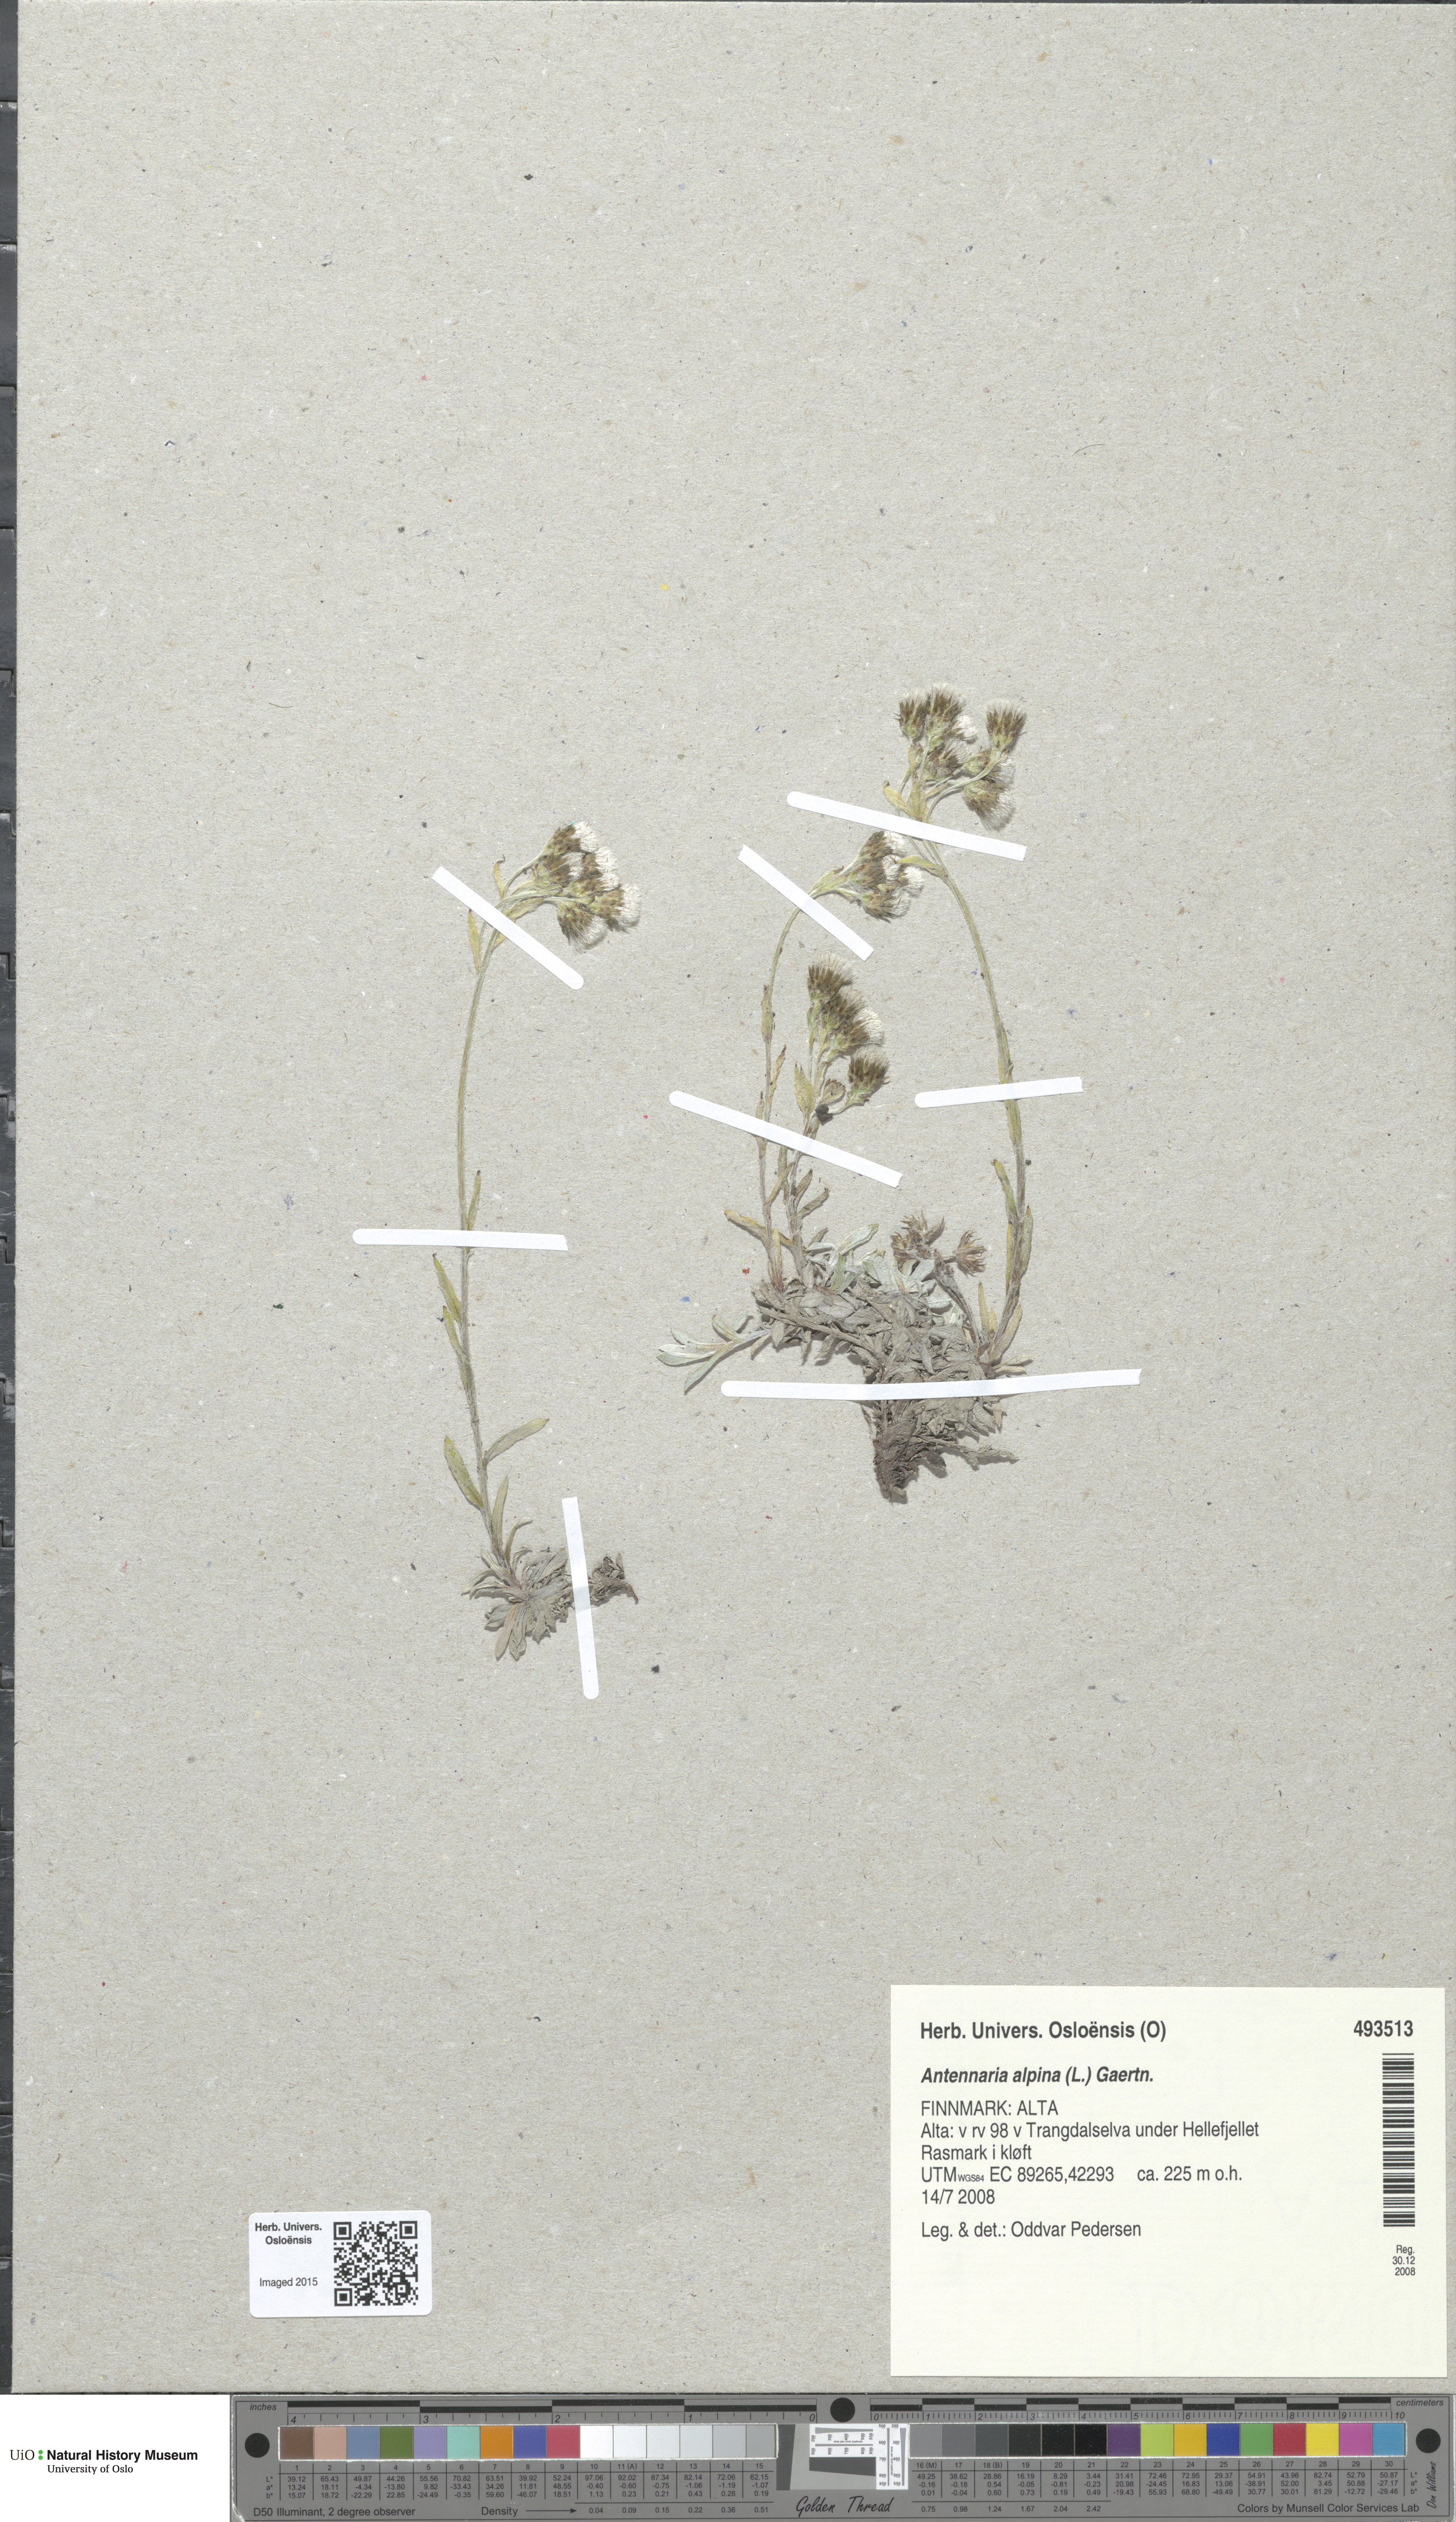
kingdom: Plantae
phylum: Tracheophyta
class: Magnoliopsida
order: Asterales
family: Asteraceae
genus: Antennaria
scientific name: Antennaria alpina
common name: Alpine pussytoes
